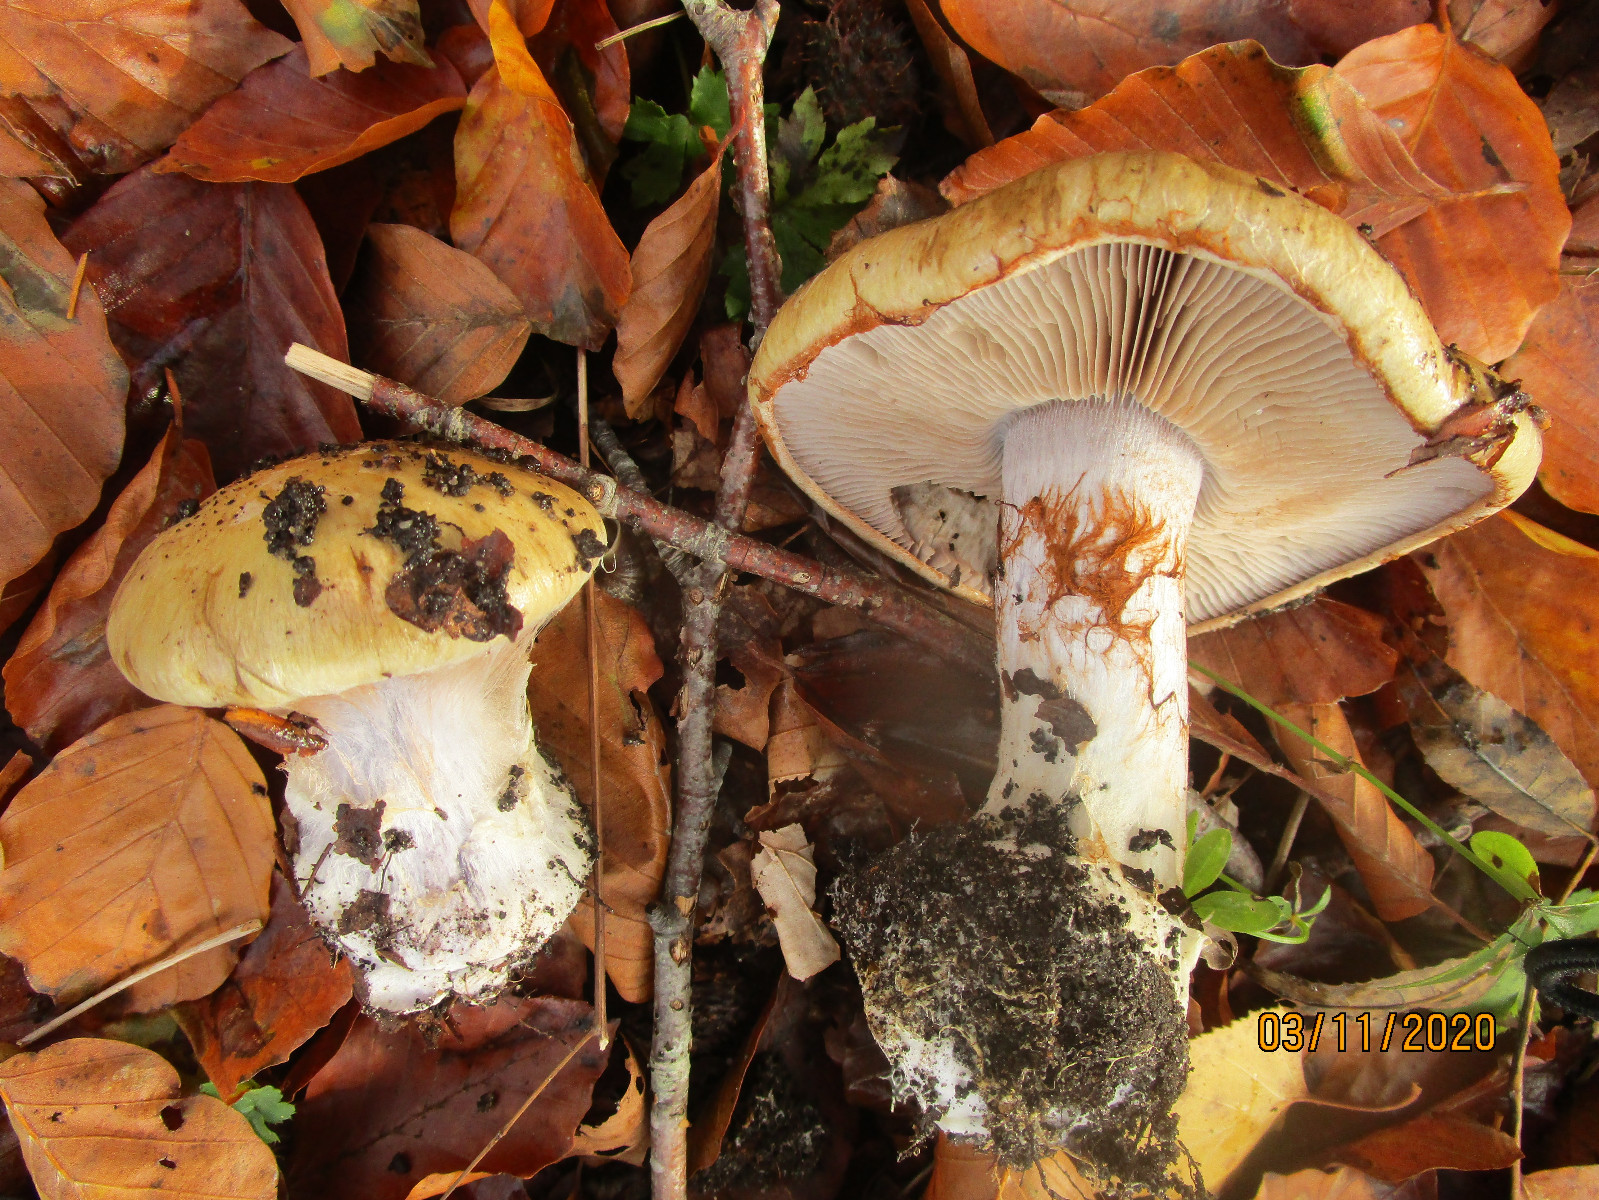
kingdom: Fungi
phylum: Basidiomycota
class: Agaricomycetes
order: Agaricales
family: Cortinariaceae
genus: Cortinarius
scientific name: Cortinarius anserinus
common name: bøge-slørhat
